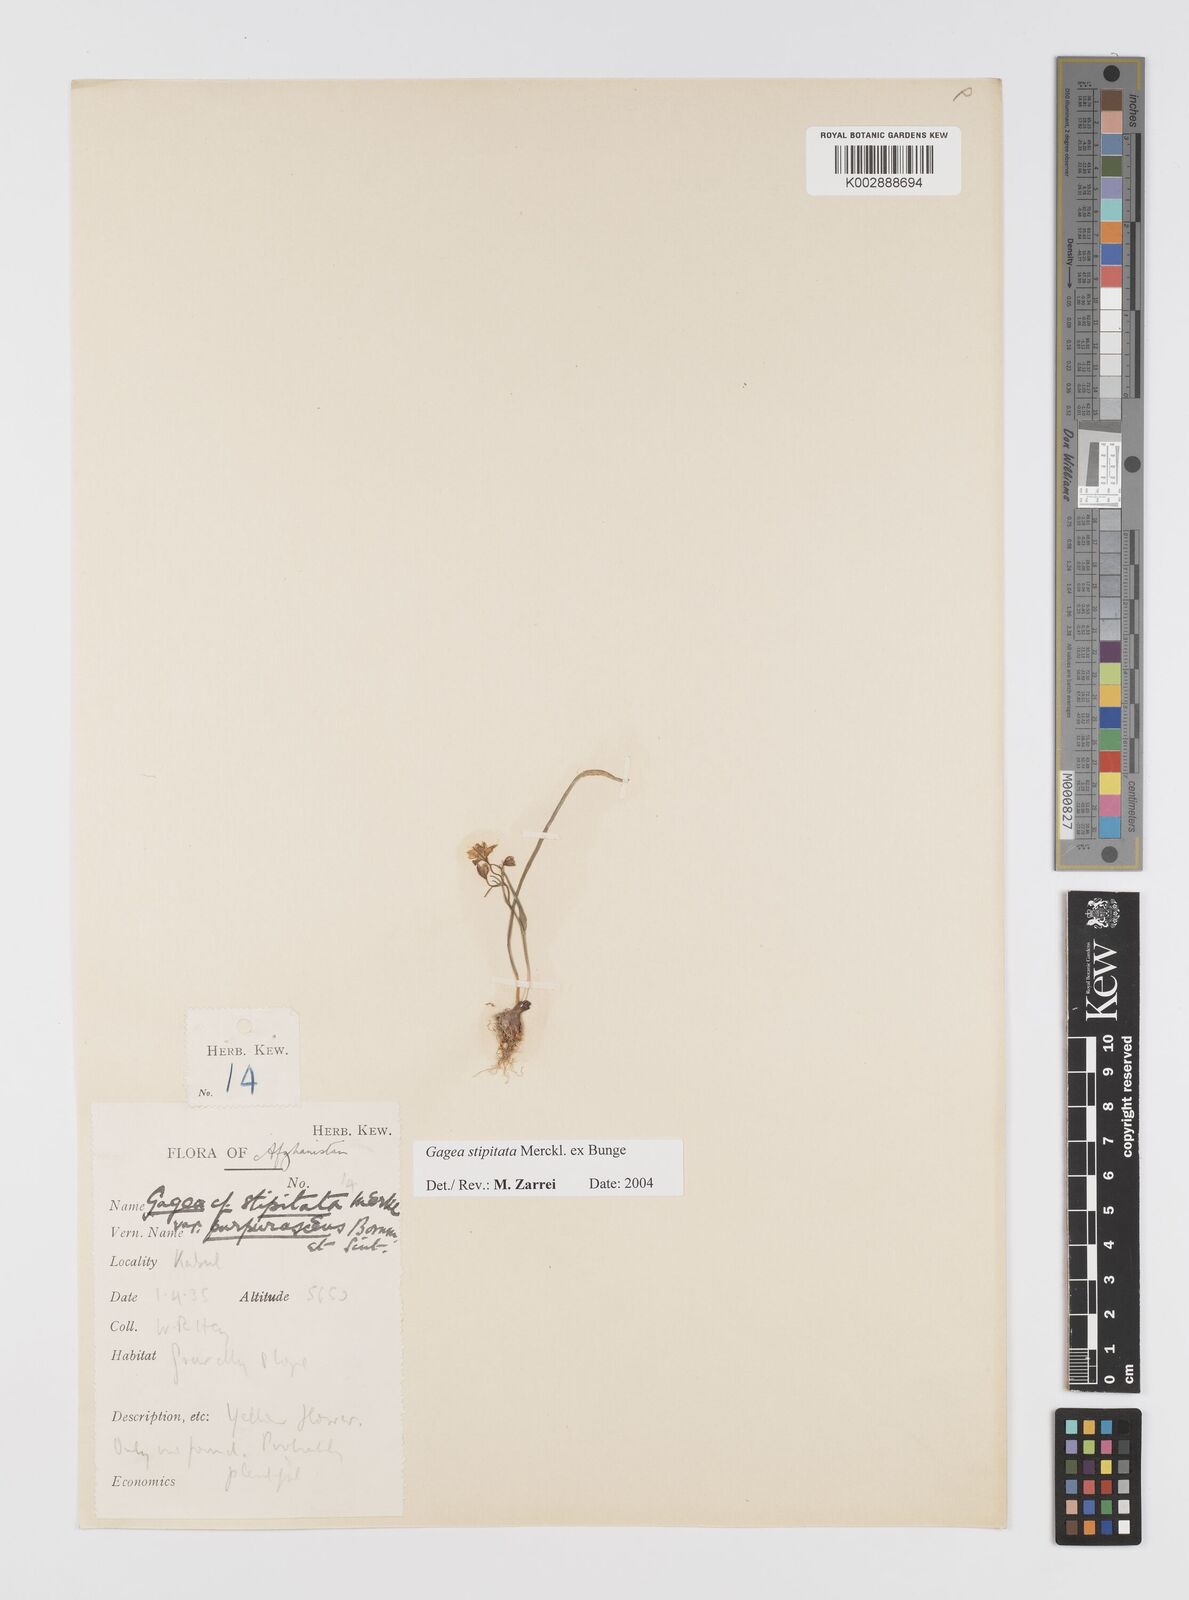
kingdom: Plantae
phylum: Tracheophyta
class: Liliopsida
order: Liliales
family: Liliaceae
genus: Gagea
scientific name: Gagea kunawurensis
